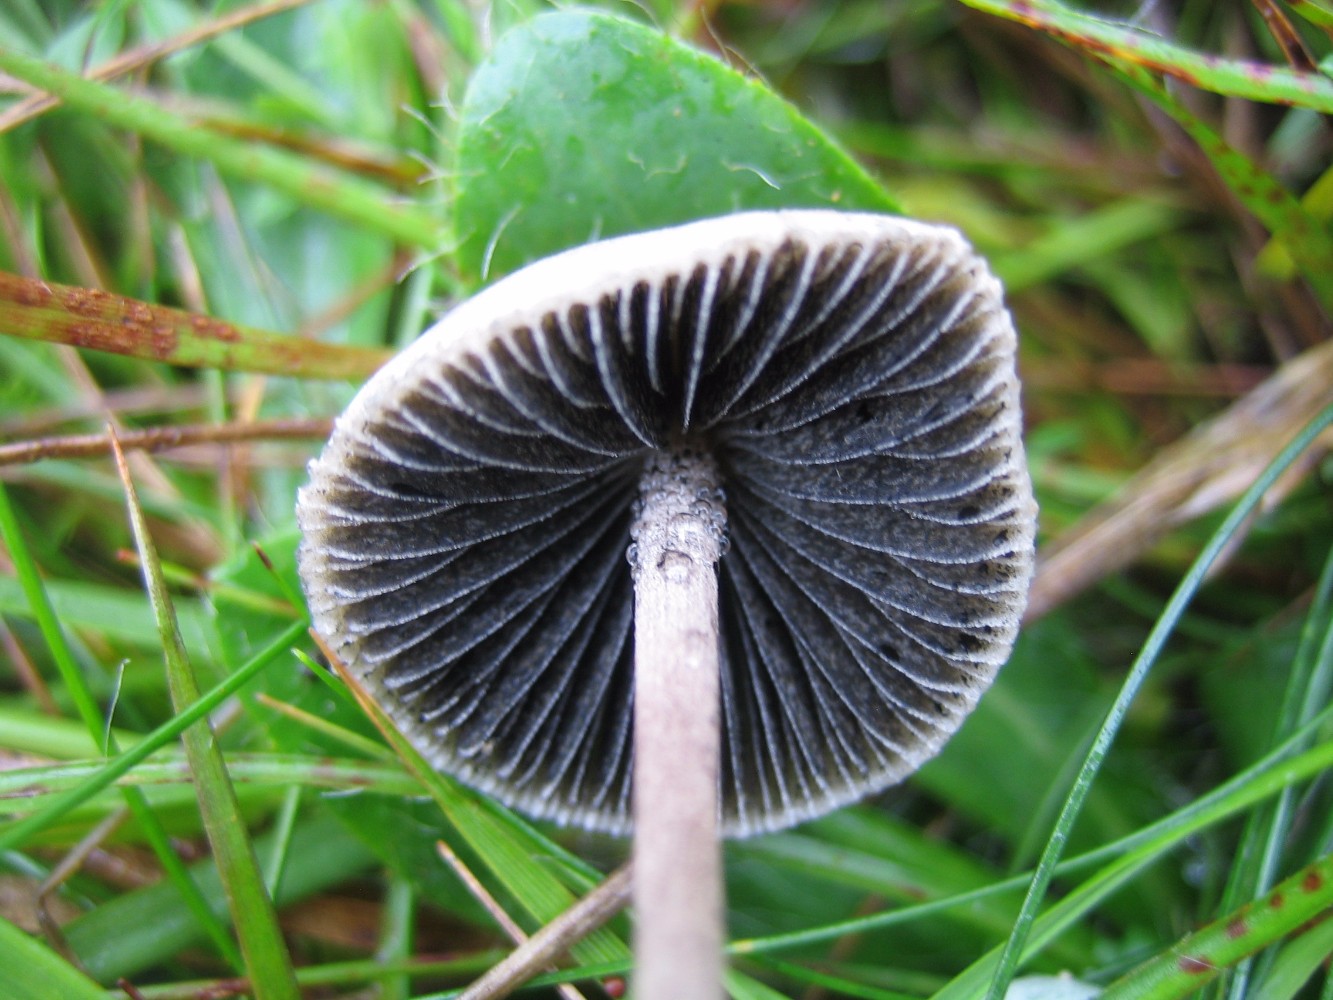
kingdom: Fungi
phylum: Basidiomycota
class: Agaricomycetes
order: Agaricales
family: Bolbitiaceae
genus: Panaeolus
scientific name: Panaeolus papilionaceus
